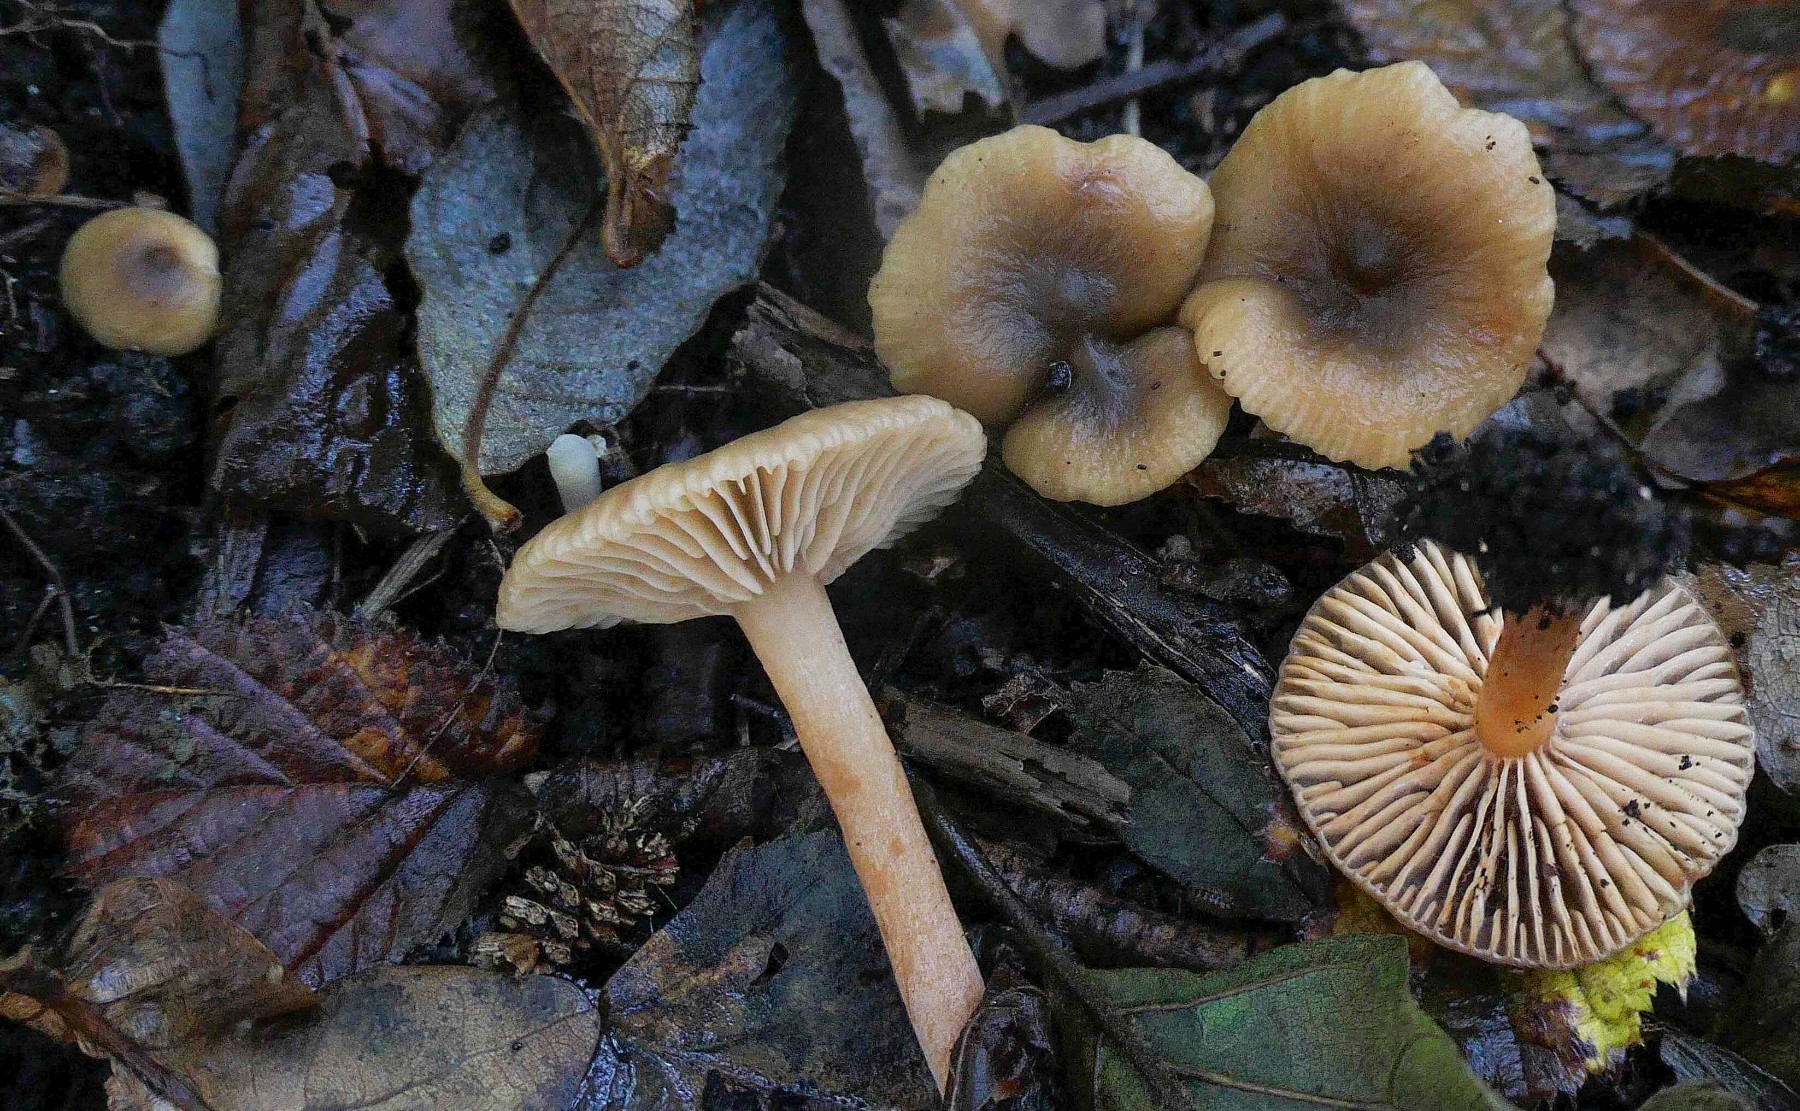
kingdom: Fungi
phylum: Basidiomycota
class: Agaricomycetes
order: Russulales
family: Russulaceae
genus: Lactarius
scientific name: Lactarius cyathuliformis
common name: mørkøjet mælkehat
